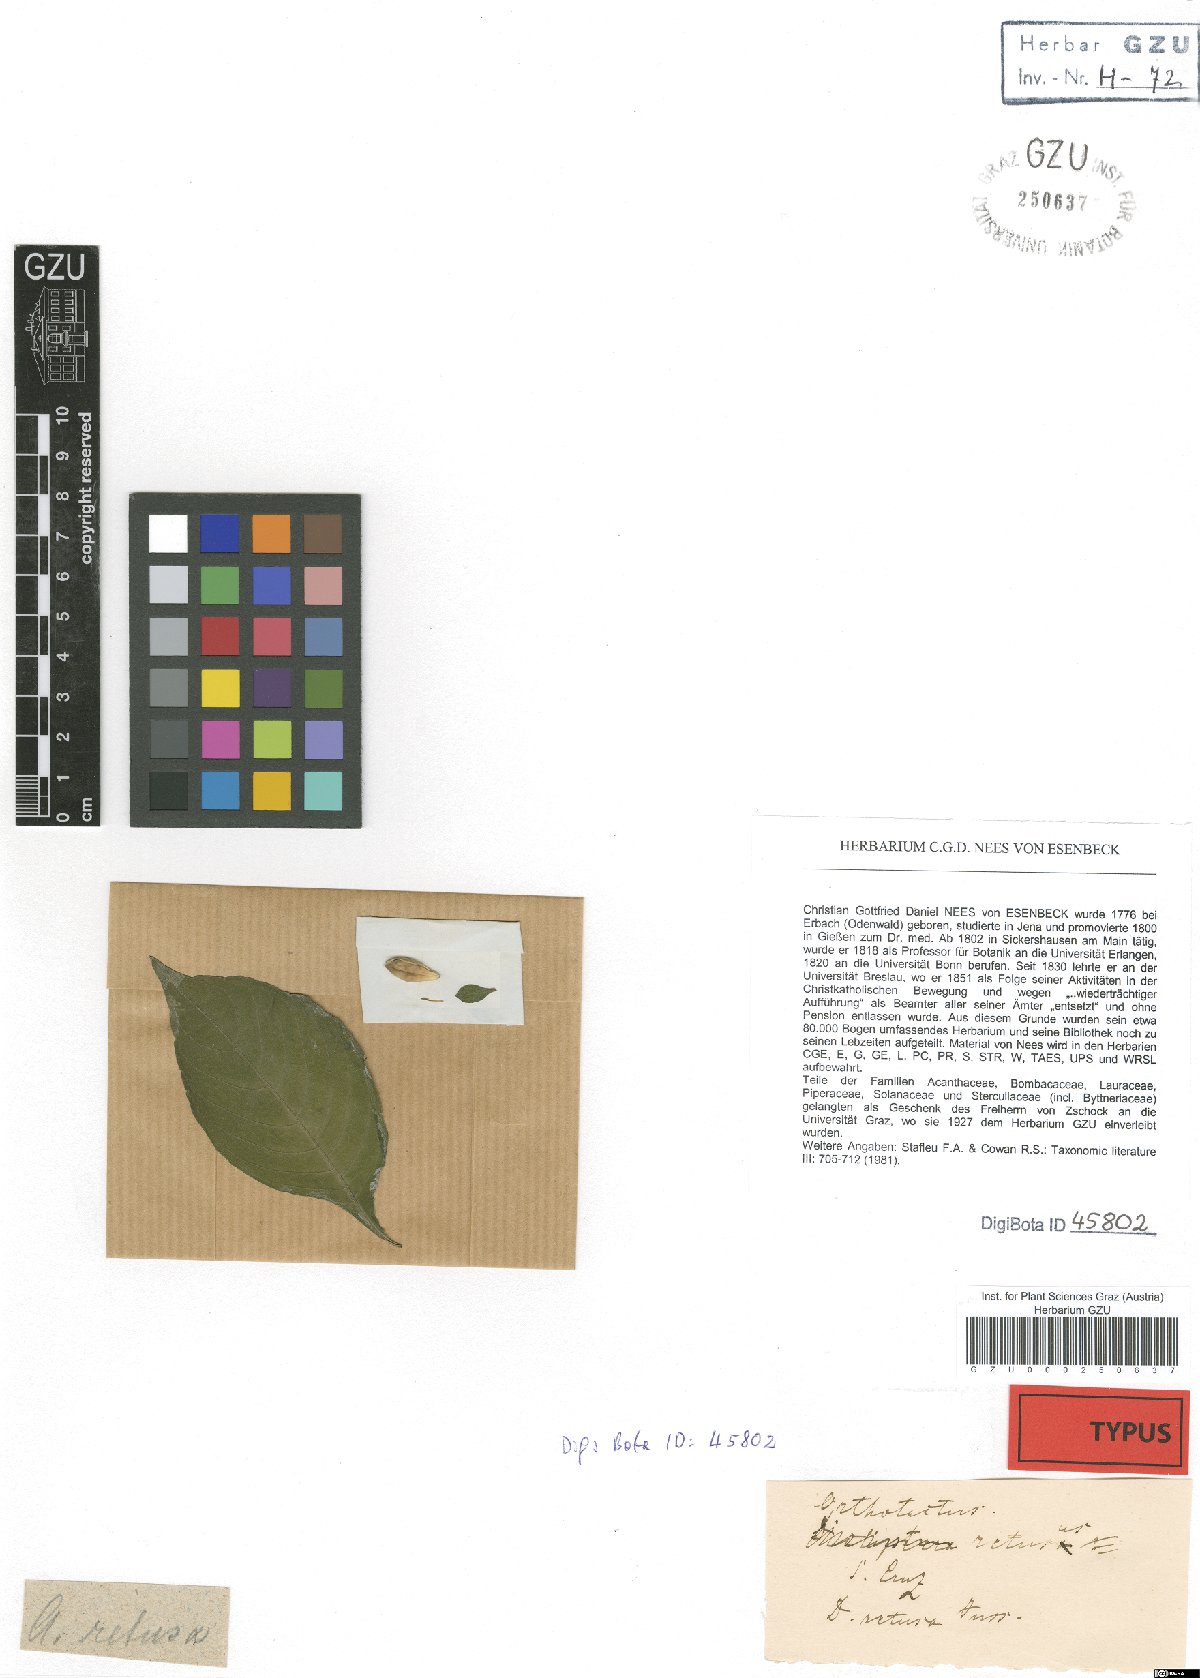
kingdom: Plantae
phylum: Tracheophyta
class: Magnoliopsida
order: Lamiales
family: Acanthaceae
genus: Justicia
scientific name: Justicia carthaginensis
